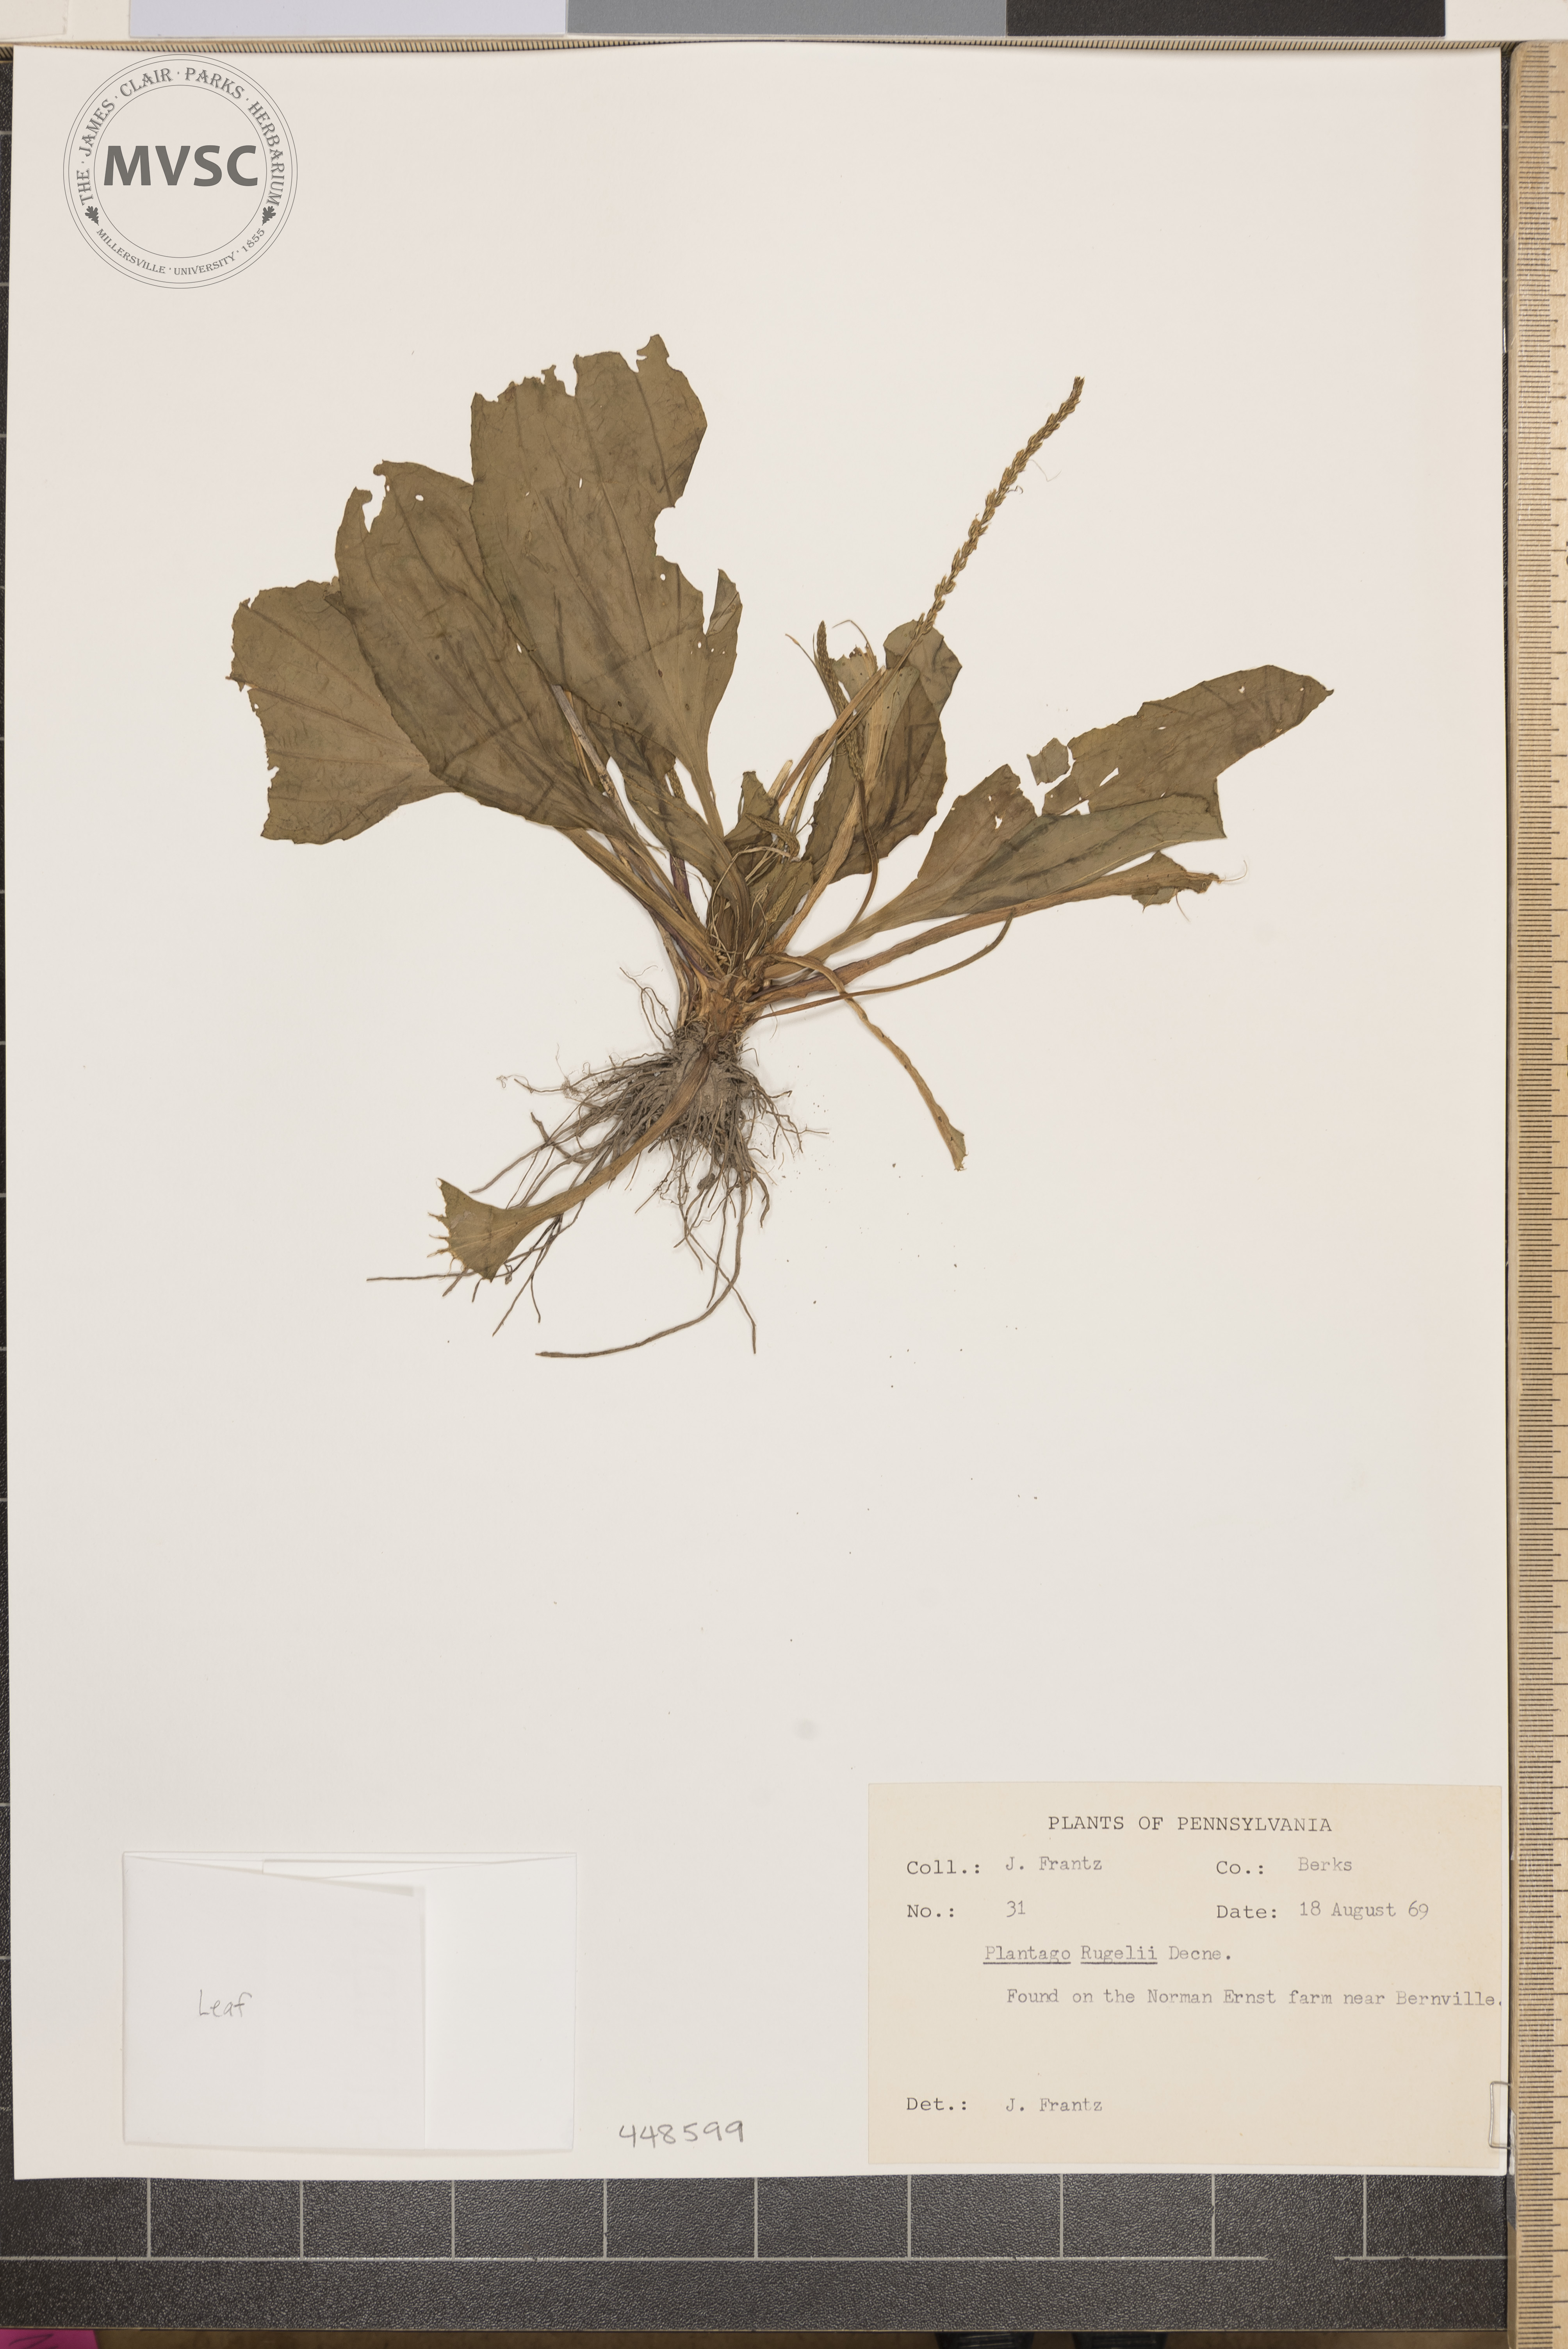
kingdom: Plantae
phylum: Tracheophyta
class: Magnoliopsida
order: Lamiales
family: Plantaginaceae
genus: Plantago
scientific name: Plantago rugelii
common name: American plantain
